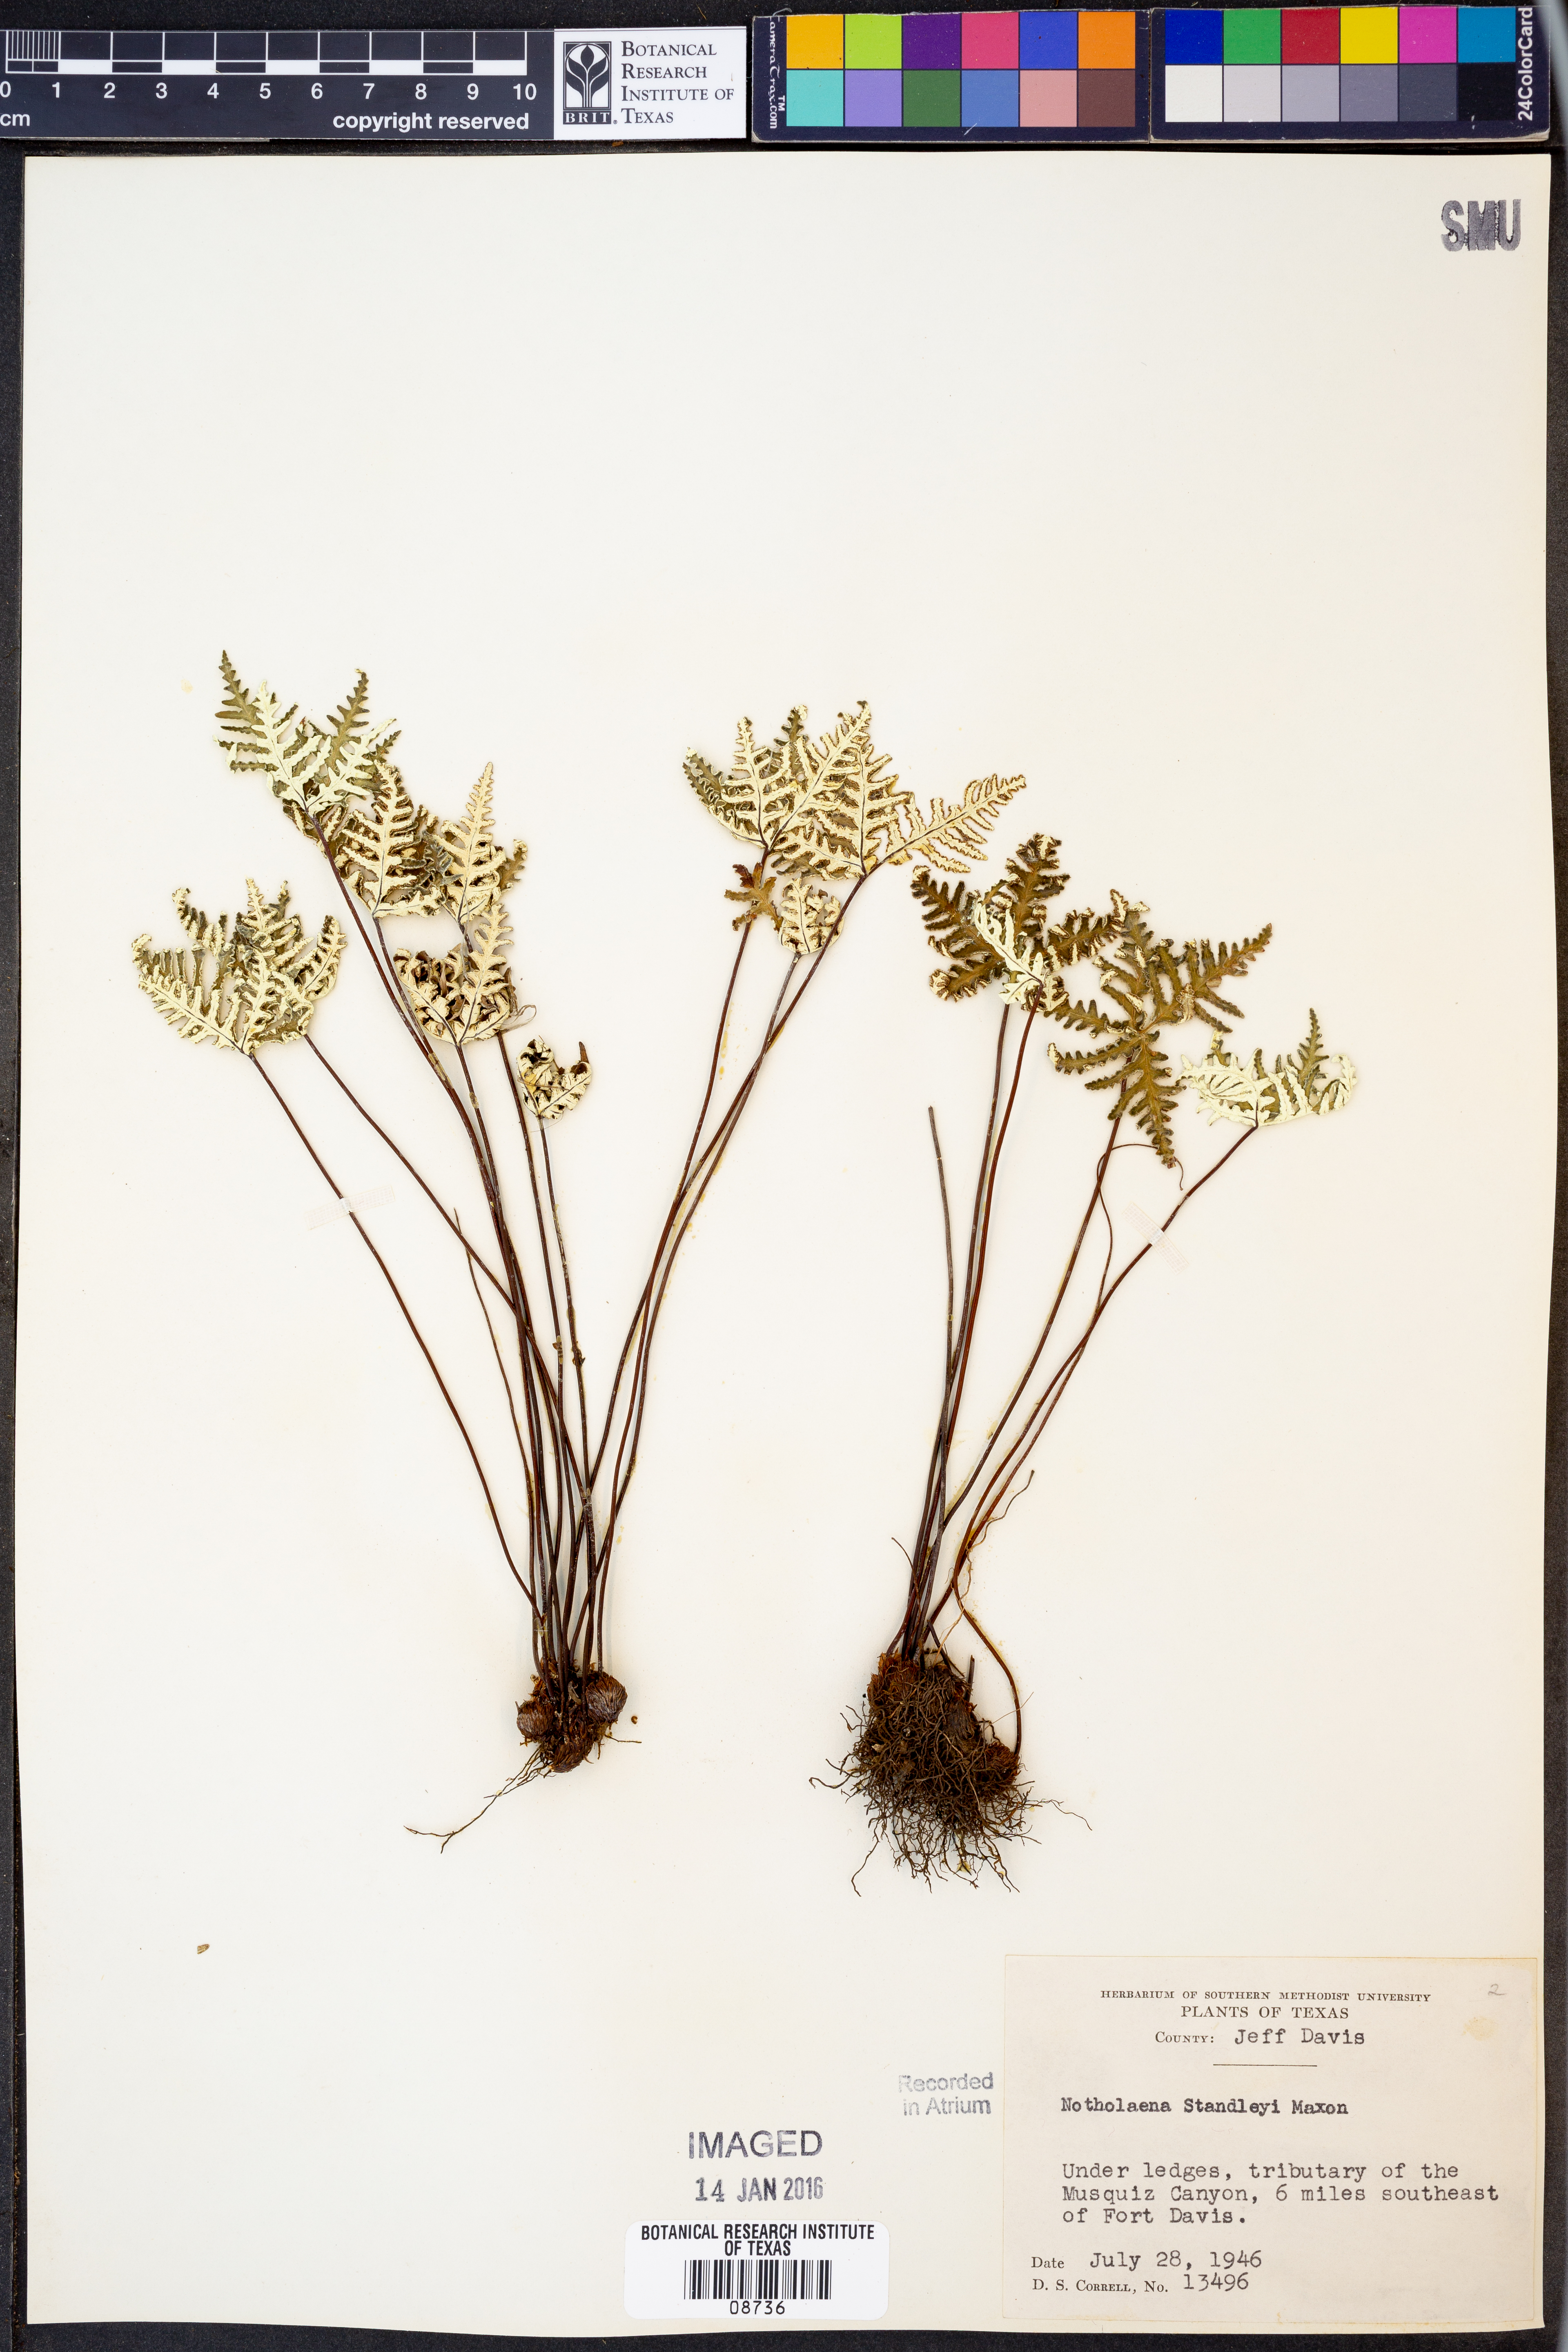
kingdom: Plantae
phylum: Tracheophyta
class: Polypodiopsida
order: Polypodiales
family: Pteridaceae
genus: Notholaena
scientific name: Notholaena standleyi
